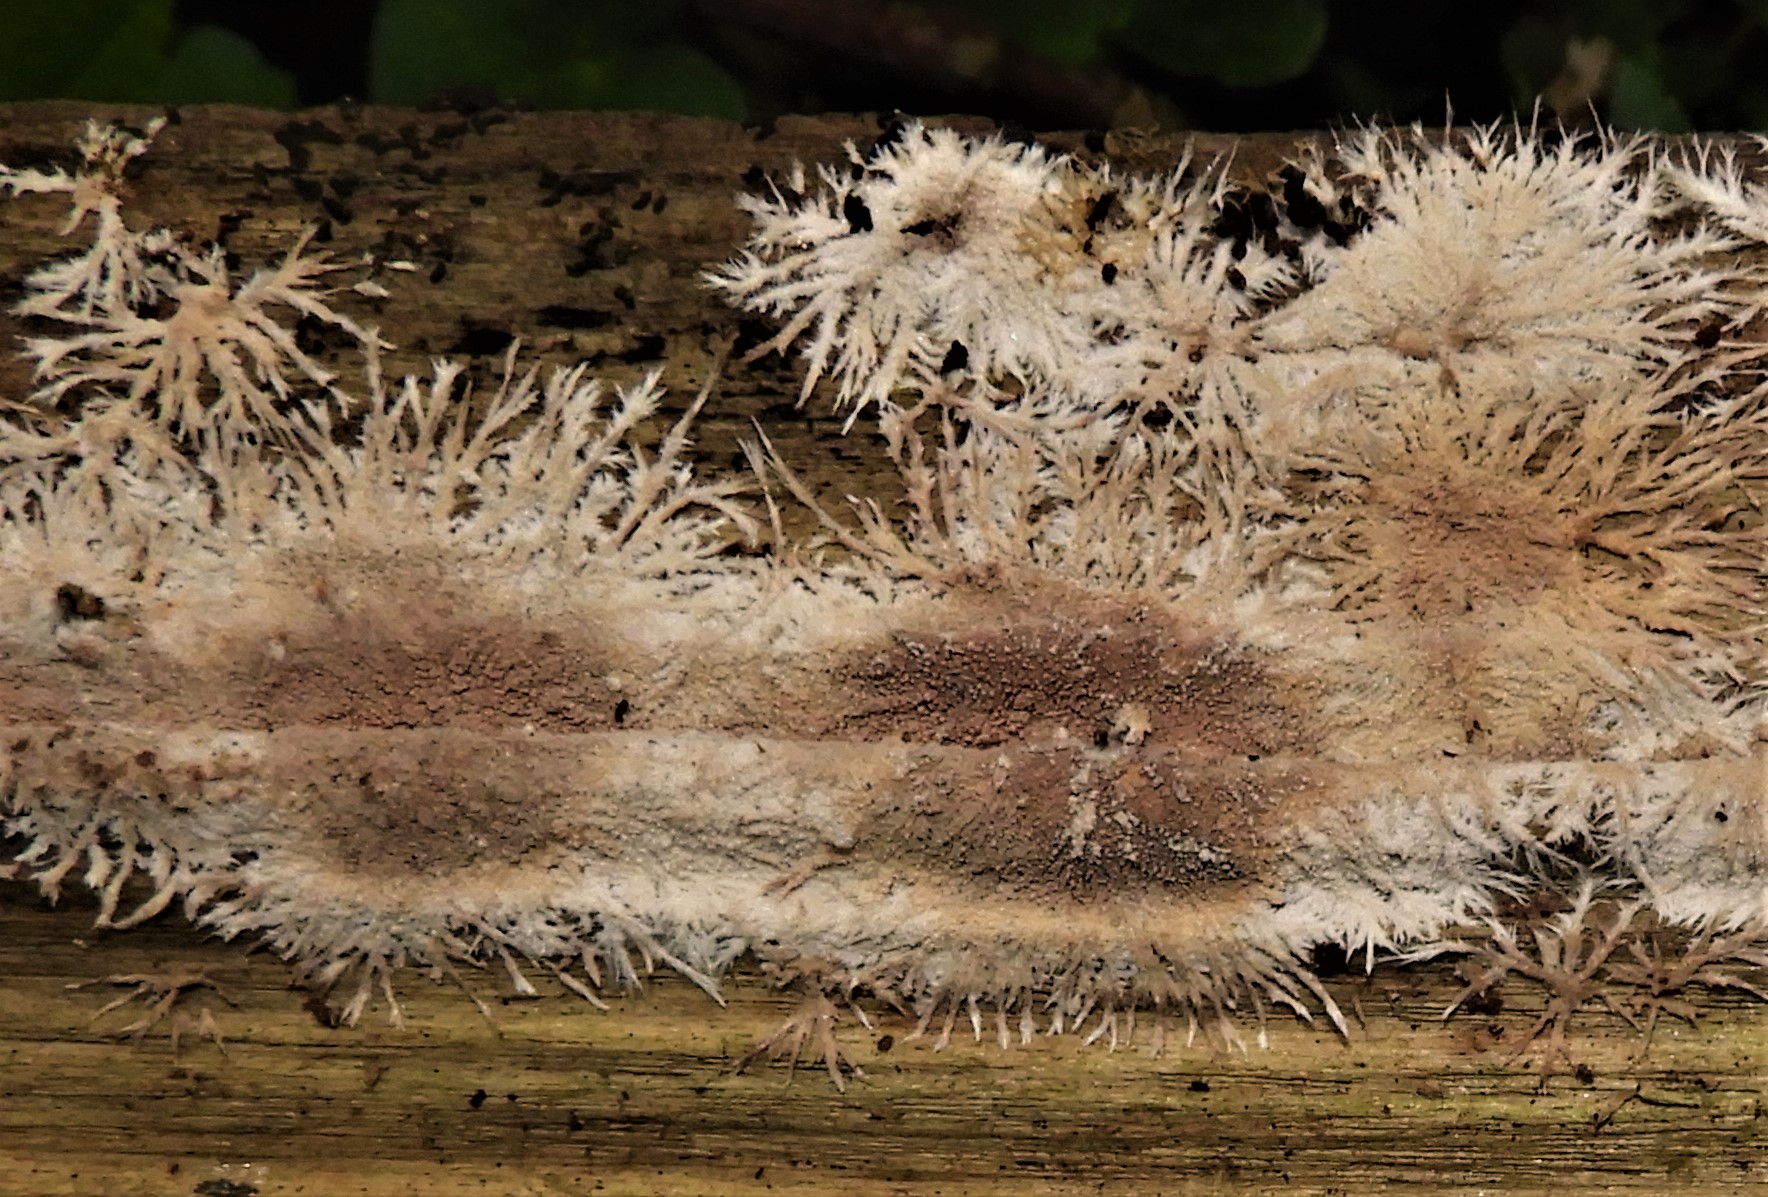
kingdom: Fungi
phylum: Basidiomycota
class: Agaricomycetes
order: Polyporales
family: Steccherinaceae
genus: Steccherinum
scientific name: Steccherinum fimbriatum
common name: trådet skønpig
